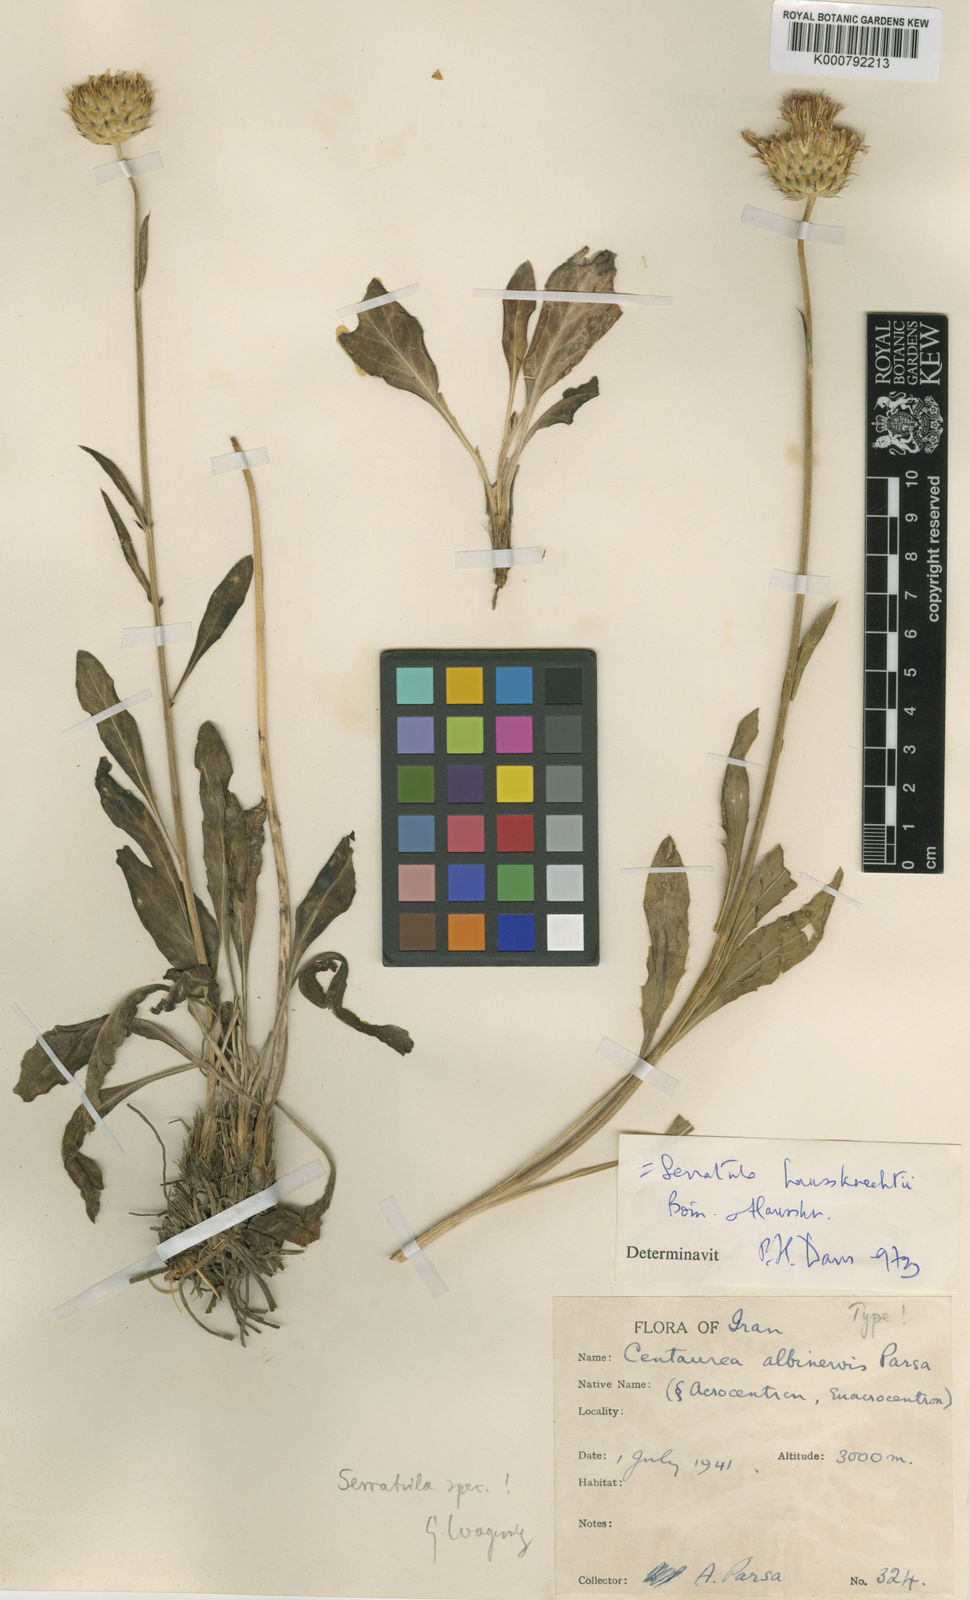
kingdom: Plantae
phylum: Tracheophyta
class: Magnoliopsida
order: Asterales
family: Asteraceae
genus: Klasea
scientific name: Klasea haussknechtii
